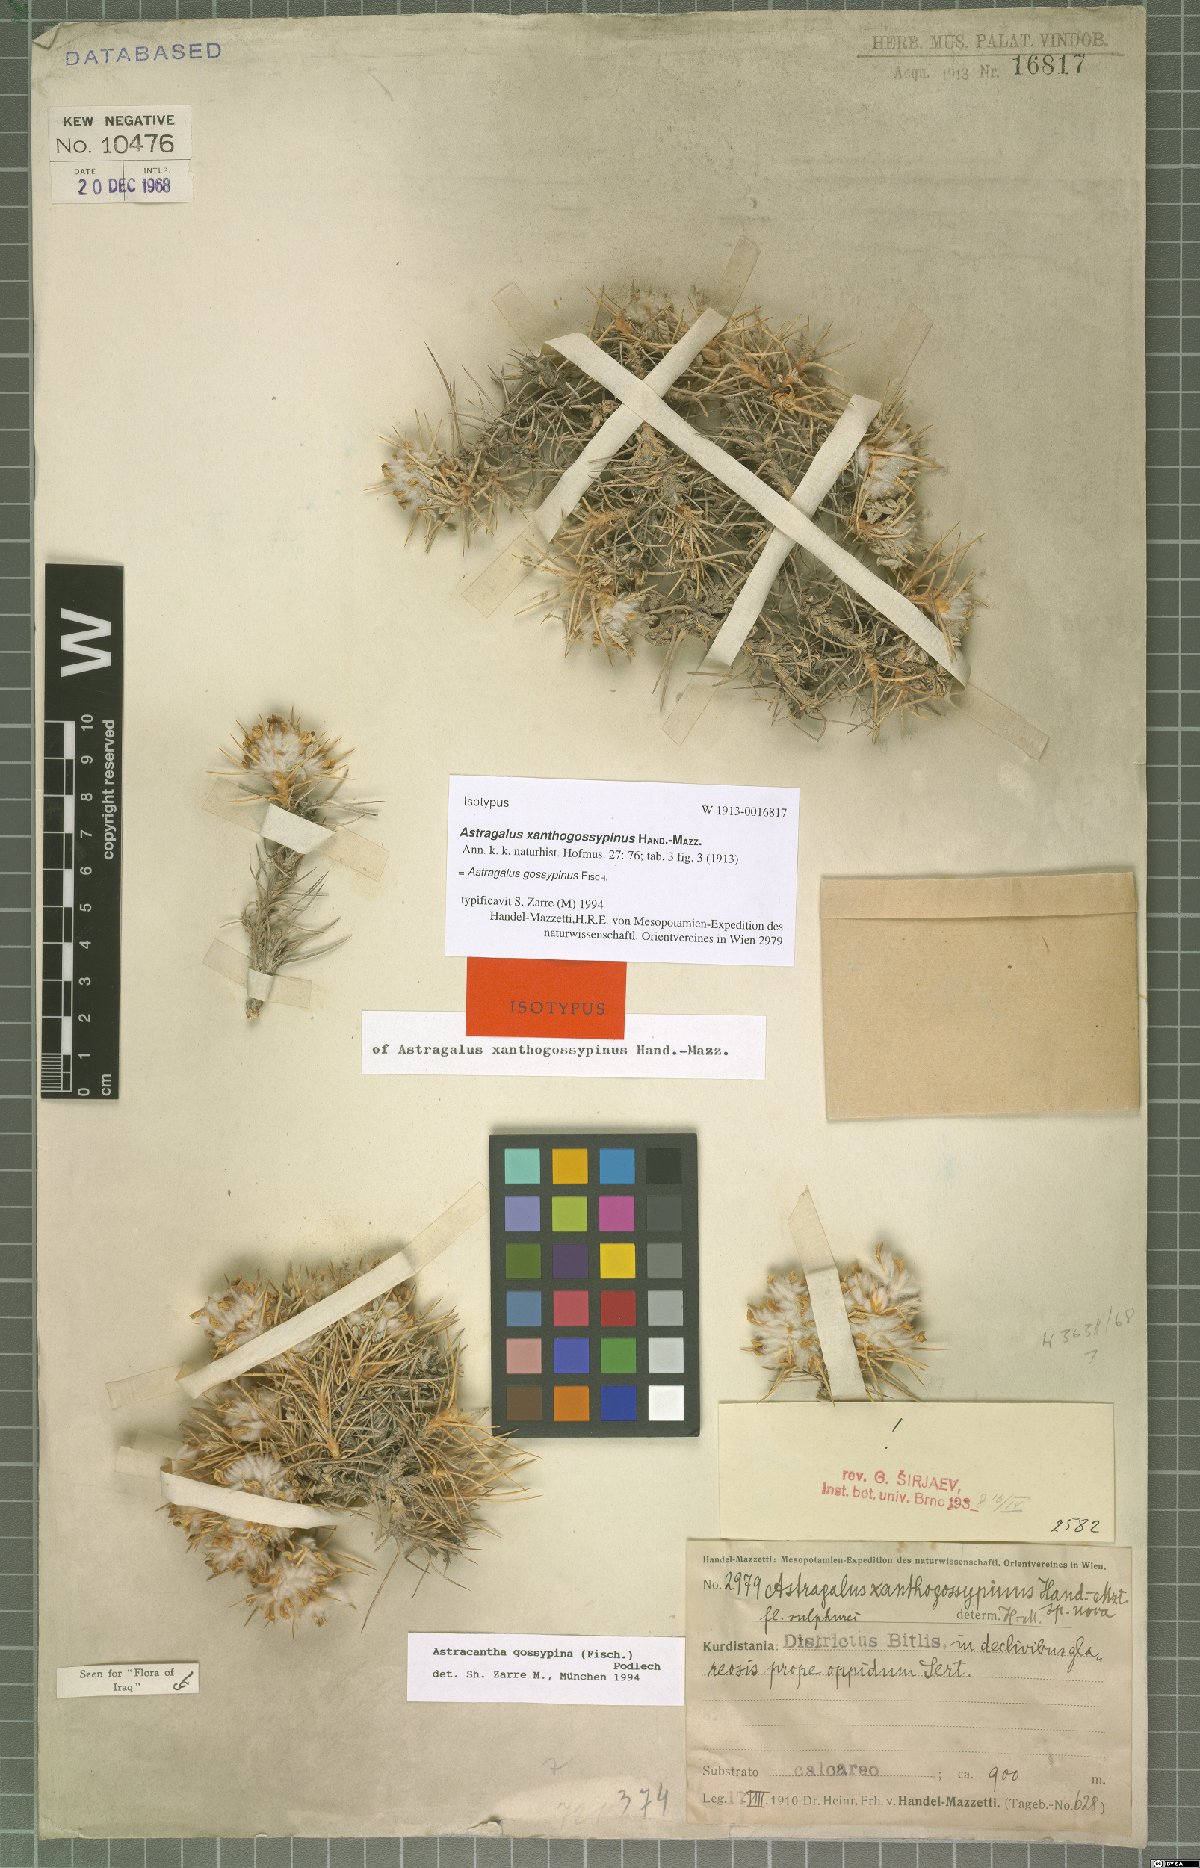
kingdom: Plantae
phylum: Tracheophyta
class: Magnoliopsida
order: Fabales
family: Fabaceae
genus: Astragalus
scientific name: Astragalus gossypinus
